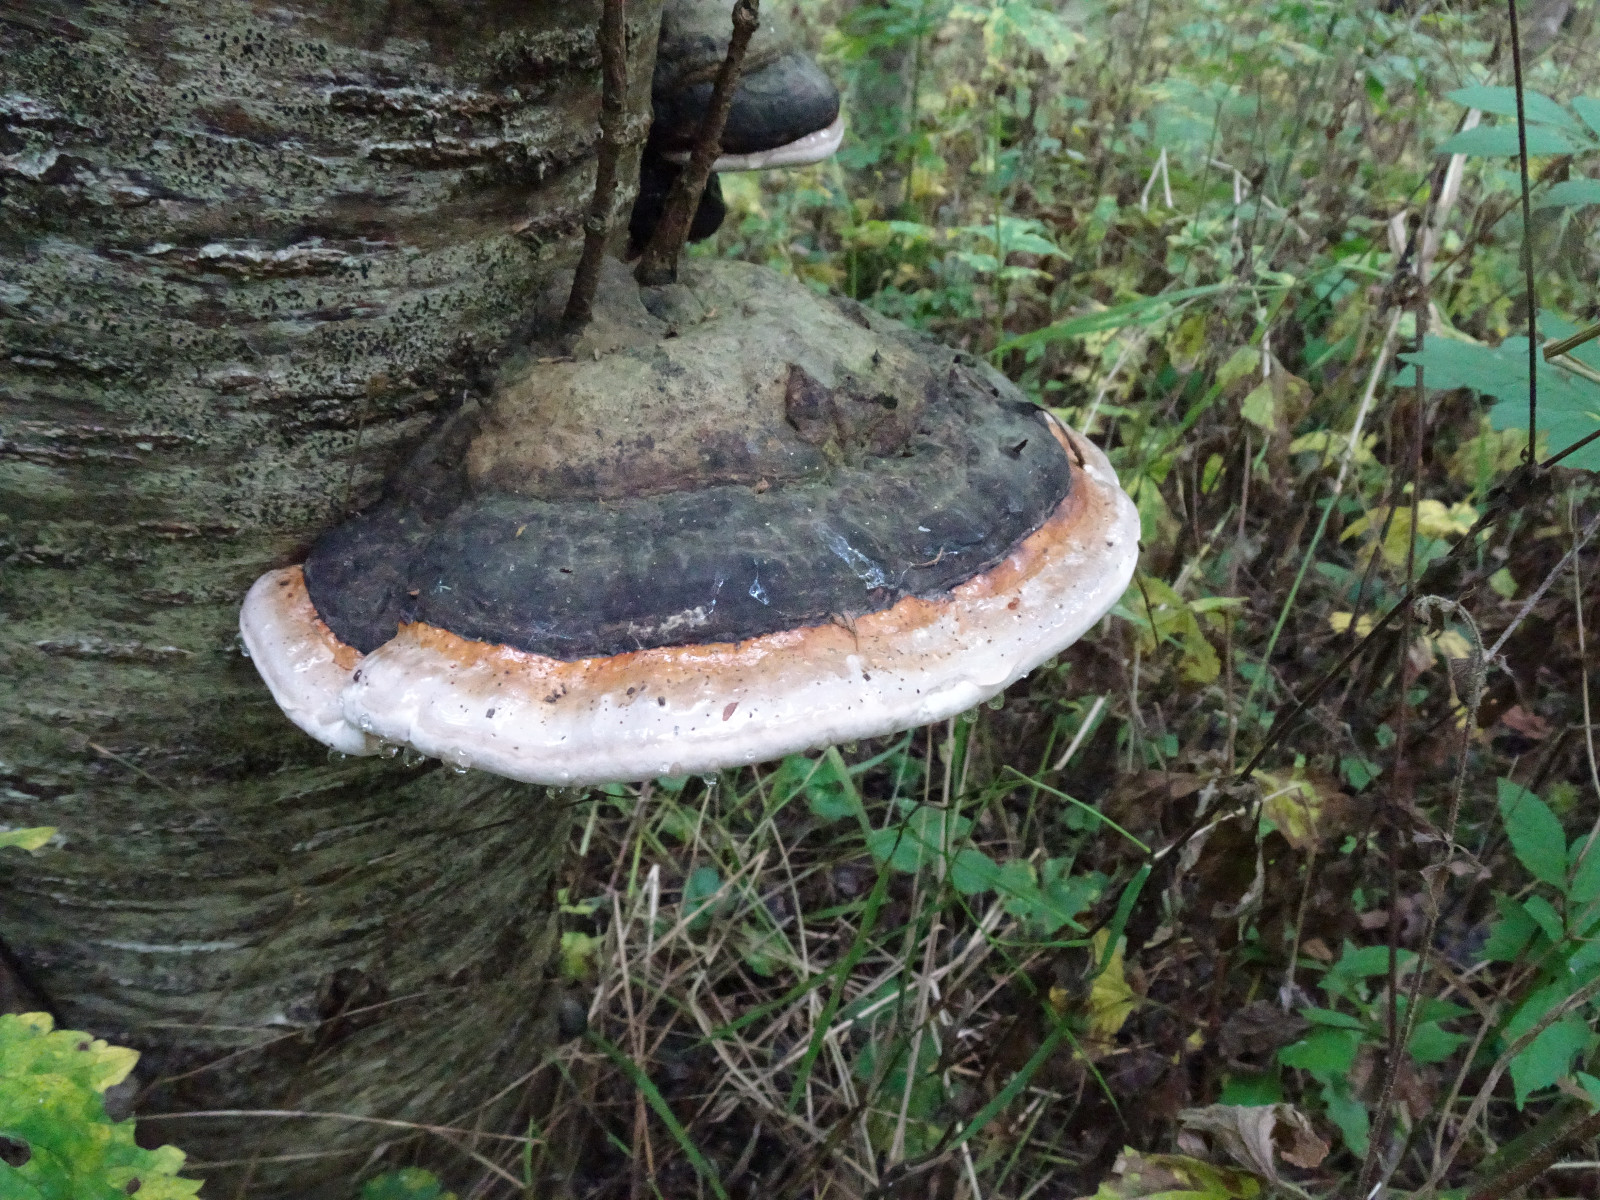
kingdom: Fungi
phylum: Basidiomycota
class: Agaricomycetes
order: Polyporales
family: Fomitopsidaceae
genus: Fomitopsis
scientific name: Fomitopsis pinicola
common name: randbæltet hovporesvamp
